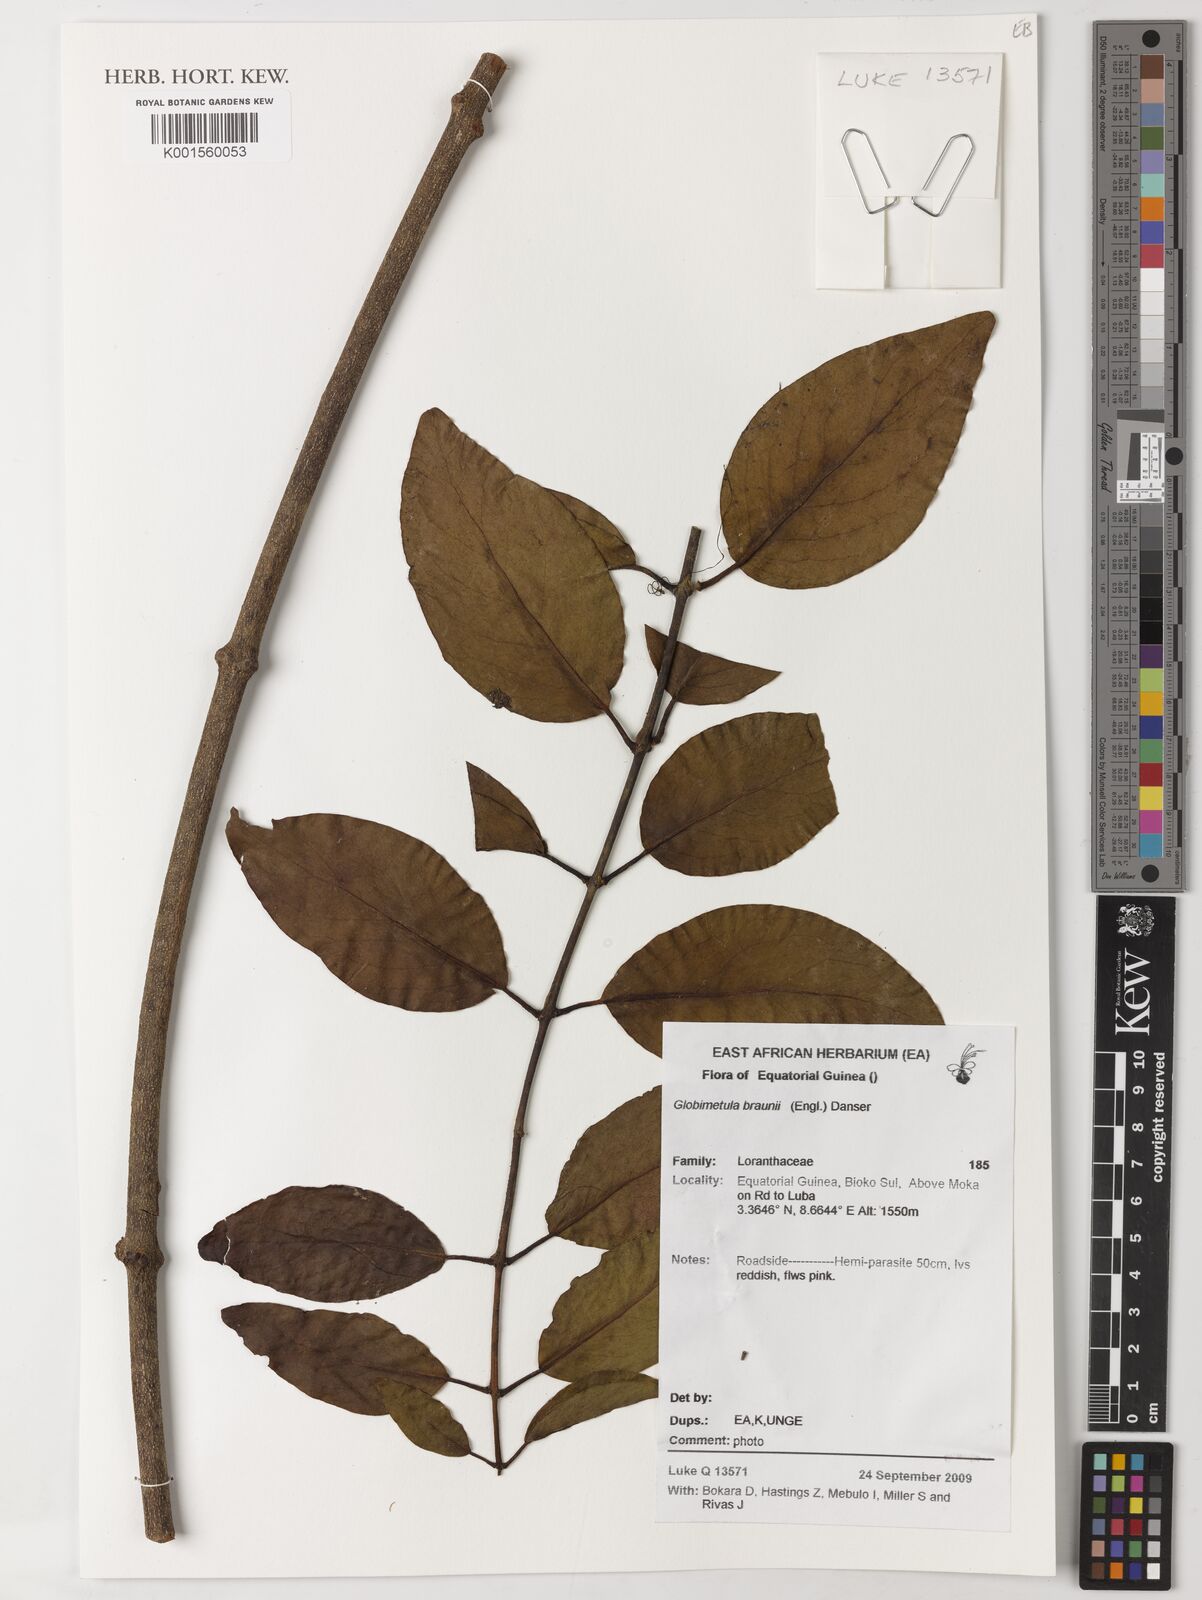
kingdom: Plantae
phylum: Tracheophyta
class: Magnoliopsida
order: Santalales
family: Loranthaceae
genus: Globimetula
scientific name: Globimetula braunii
